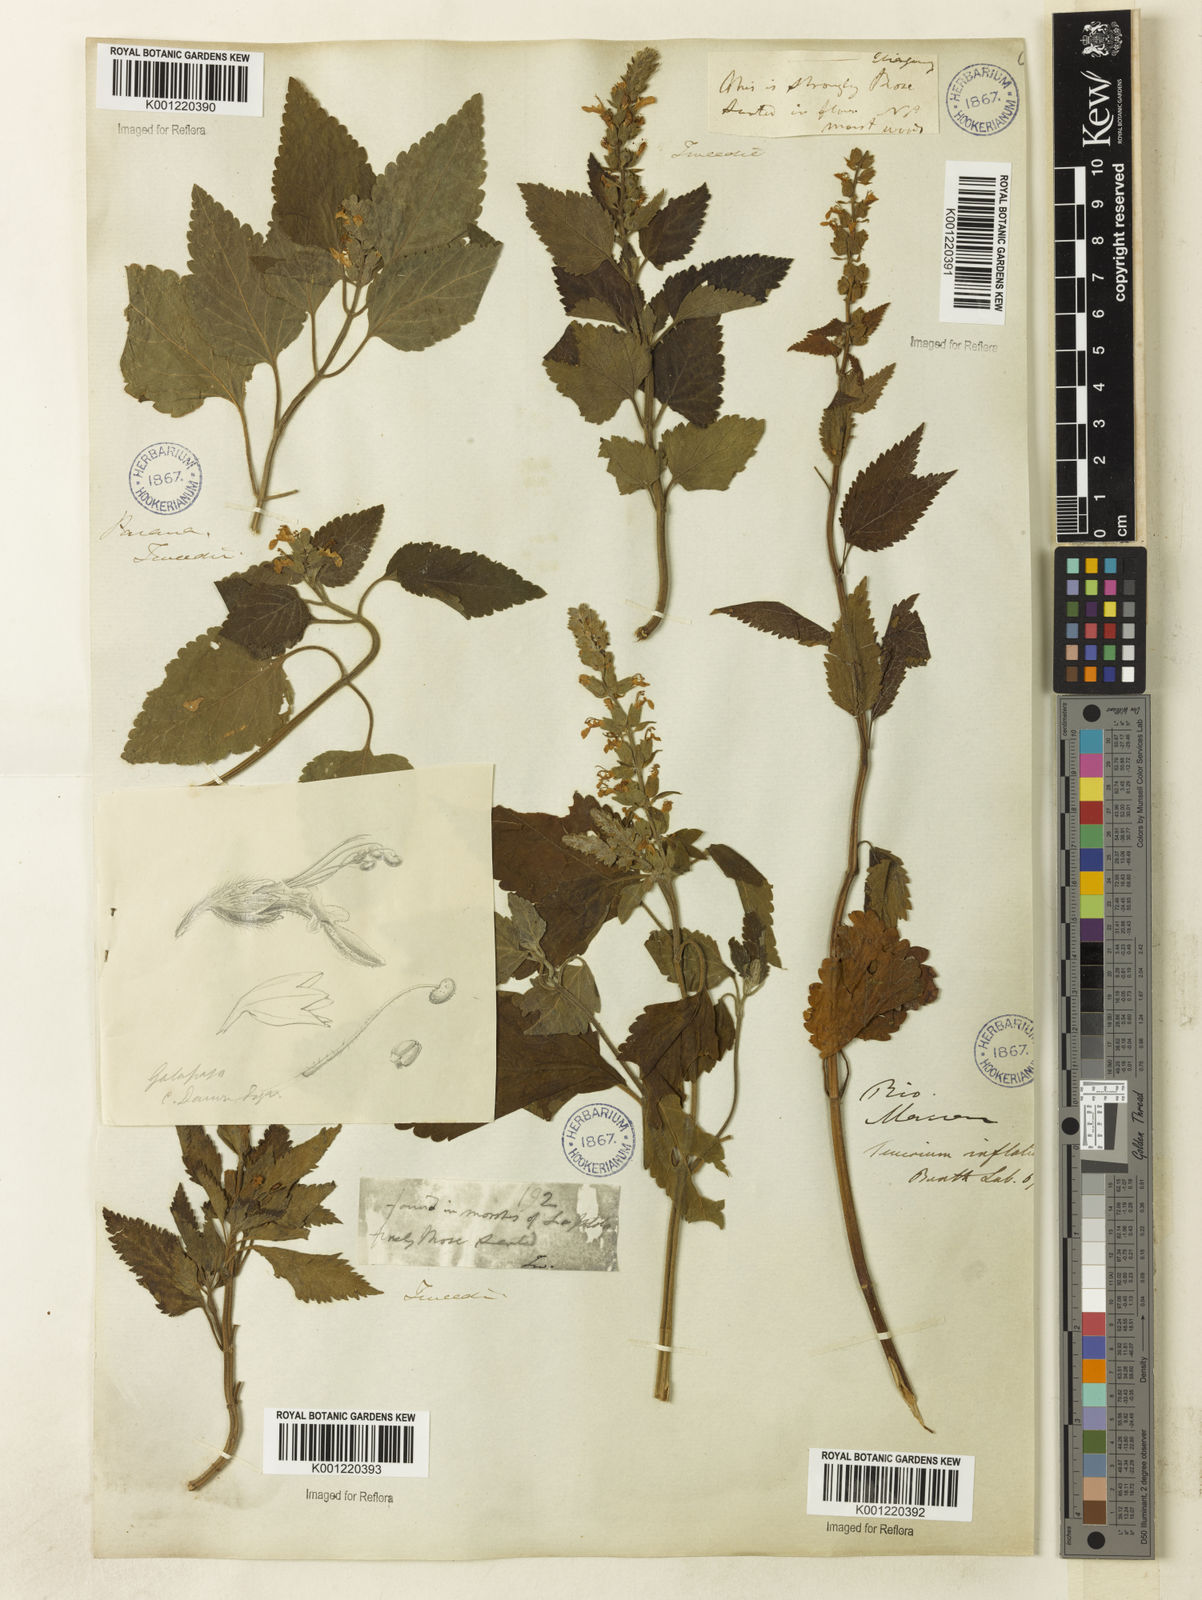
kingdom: Plantae
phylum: Tracheophyta
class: Magnoliopsida
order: Lamiales
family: Lamiaceae
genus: Teucrium
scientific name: Teucrium vesicarium
